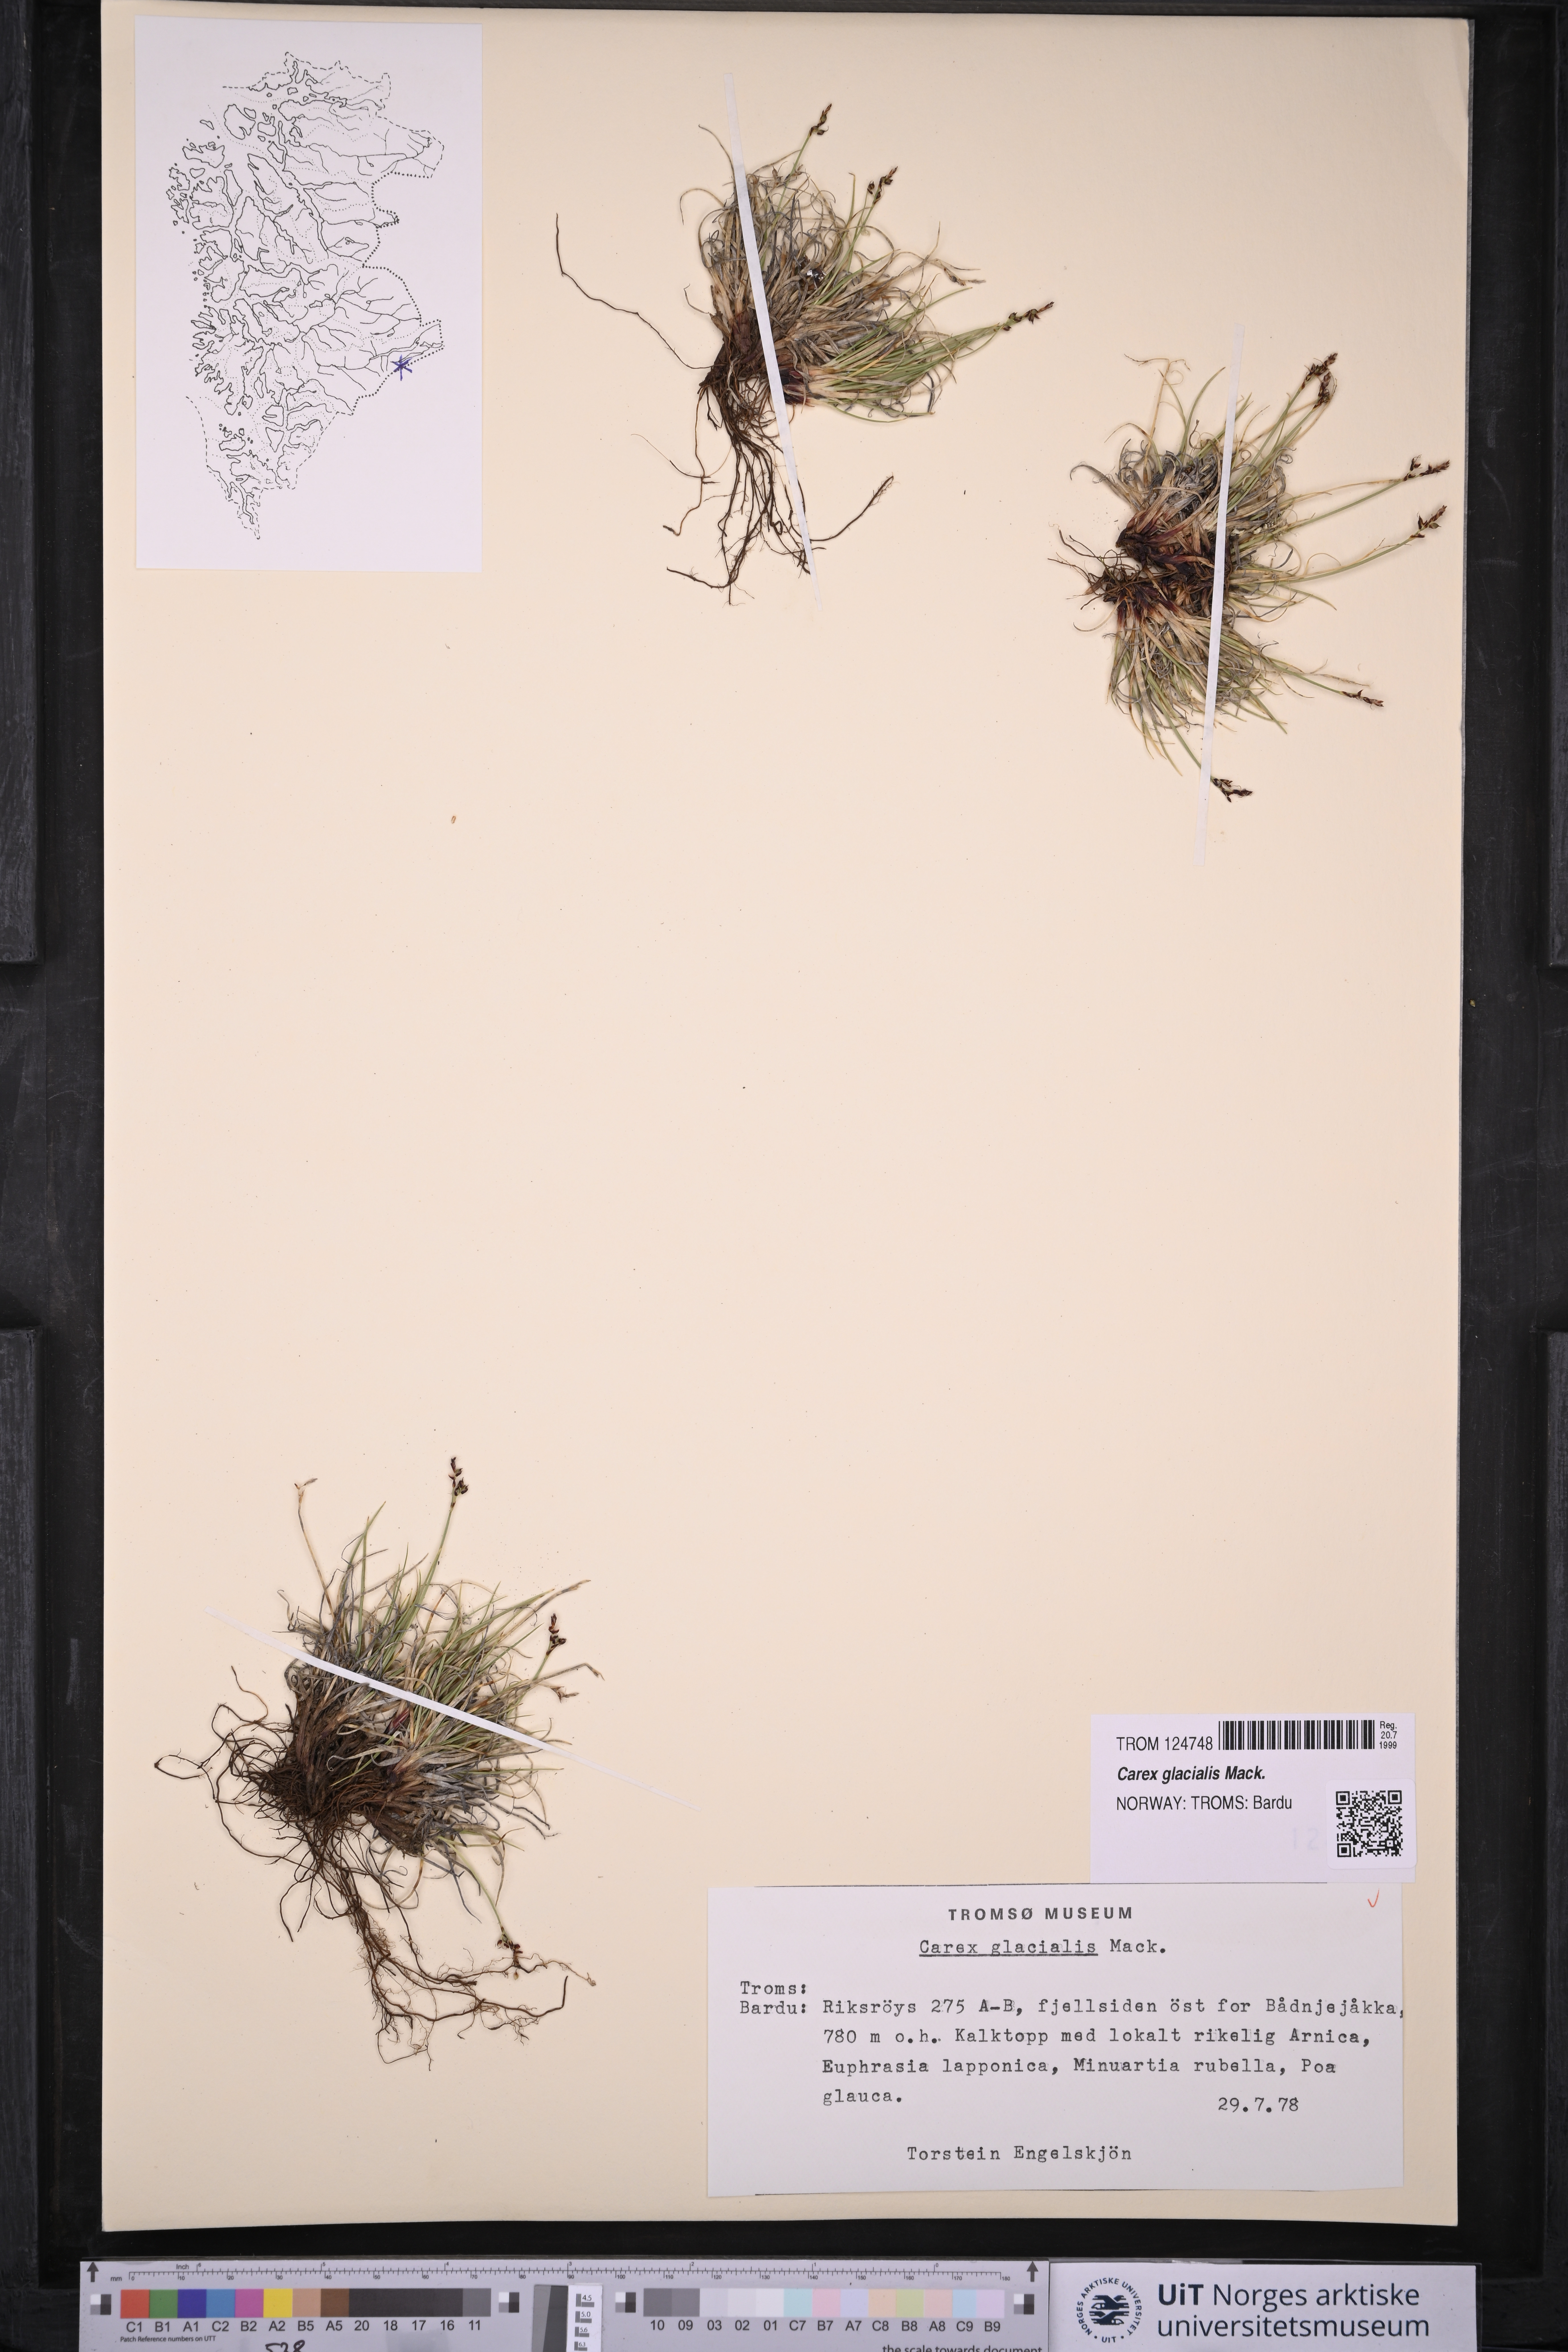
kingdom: Plantae
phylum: Tracheophyta
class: Liliopsida
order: Poales
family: Cyperaceae
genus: Carex
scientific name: Carex glacialis
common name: Newfoundland sedge
